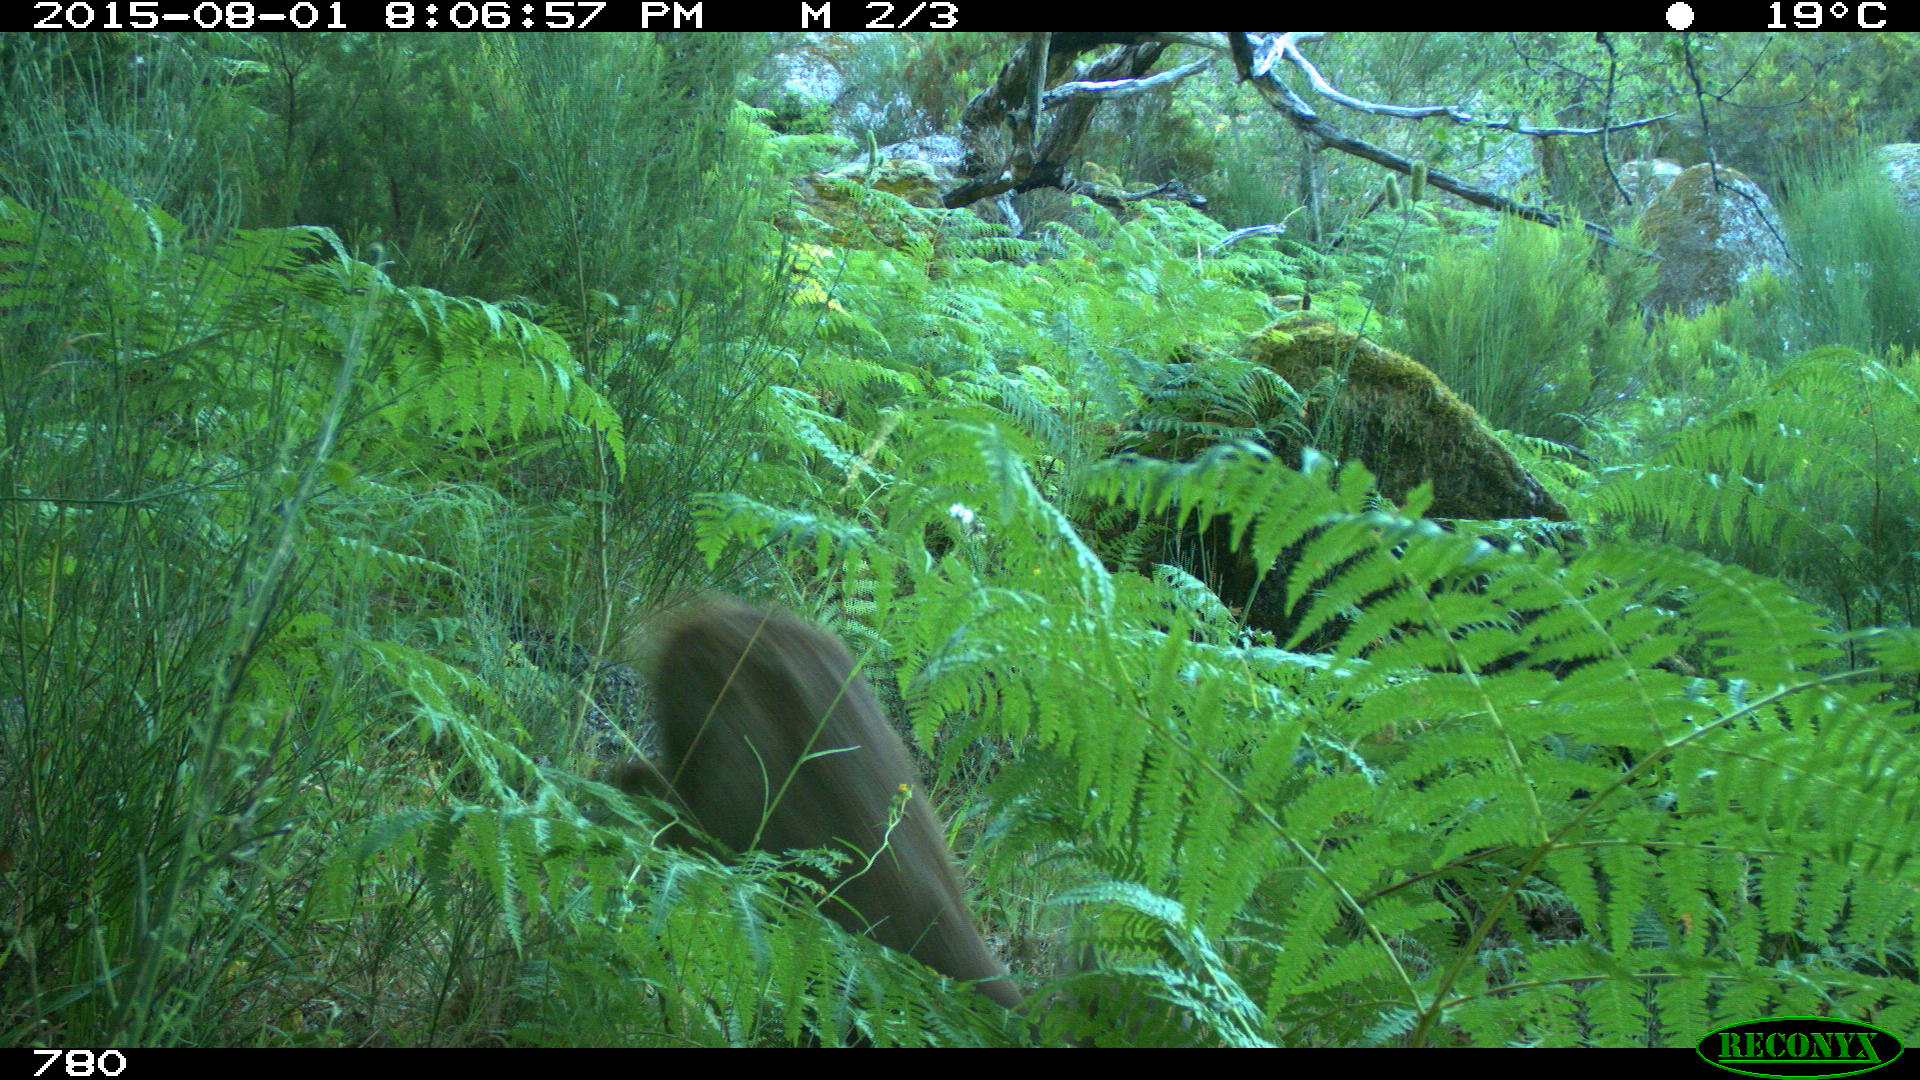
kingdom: Animalia
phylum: Chordata
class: Mammalia
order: Artiodactyla
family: Cervidae
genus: Capreolus
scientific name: Capreolus capreolus
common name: Western roe deer
